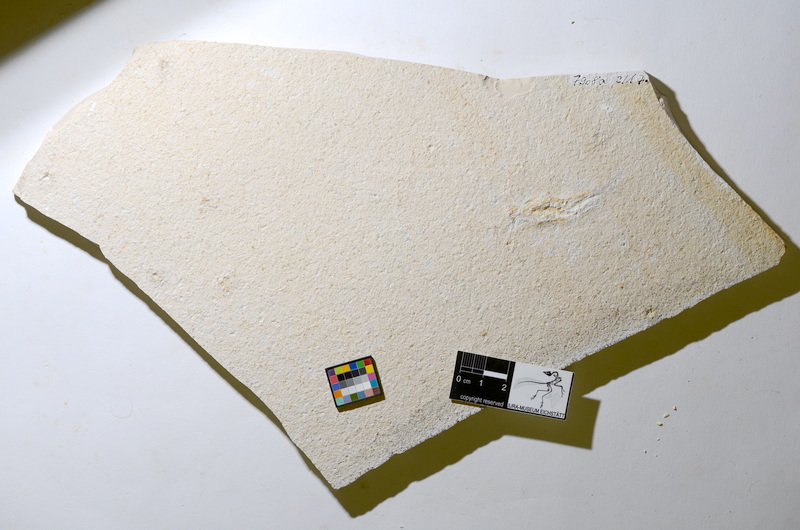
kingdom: Animalia
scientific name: Animalia
